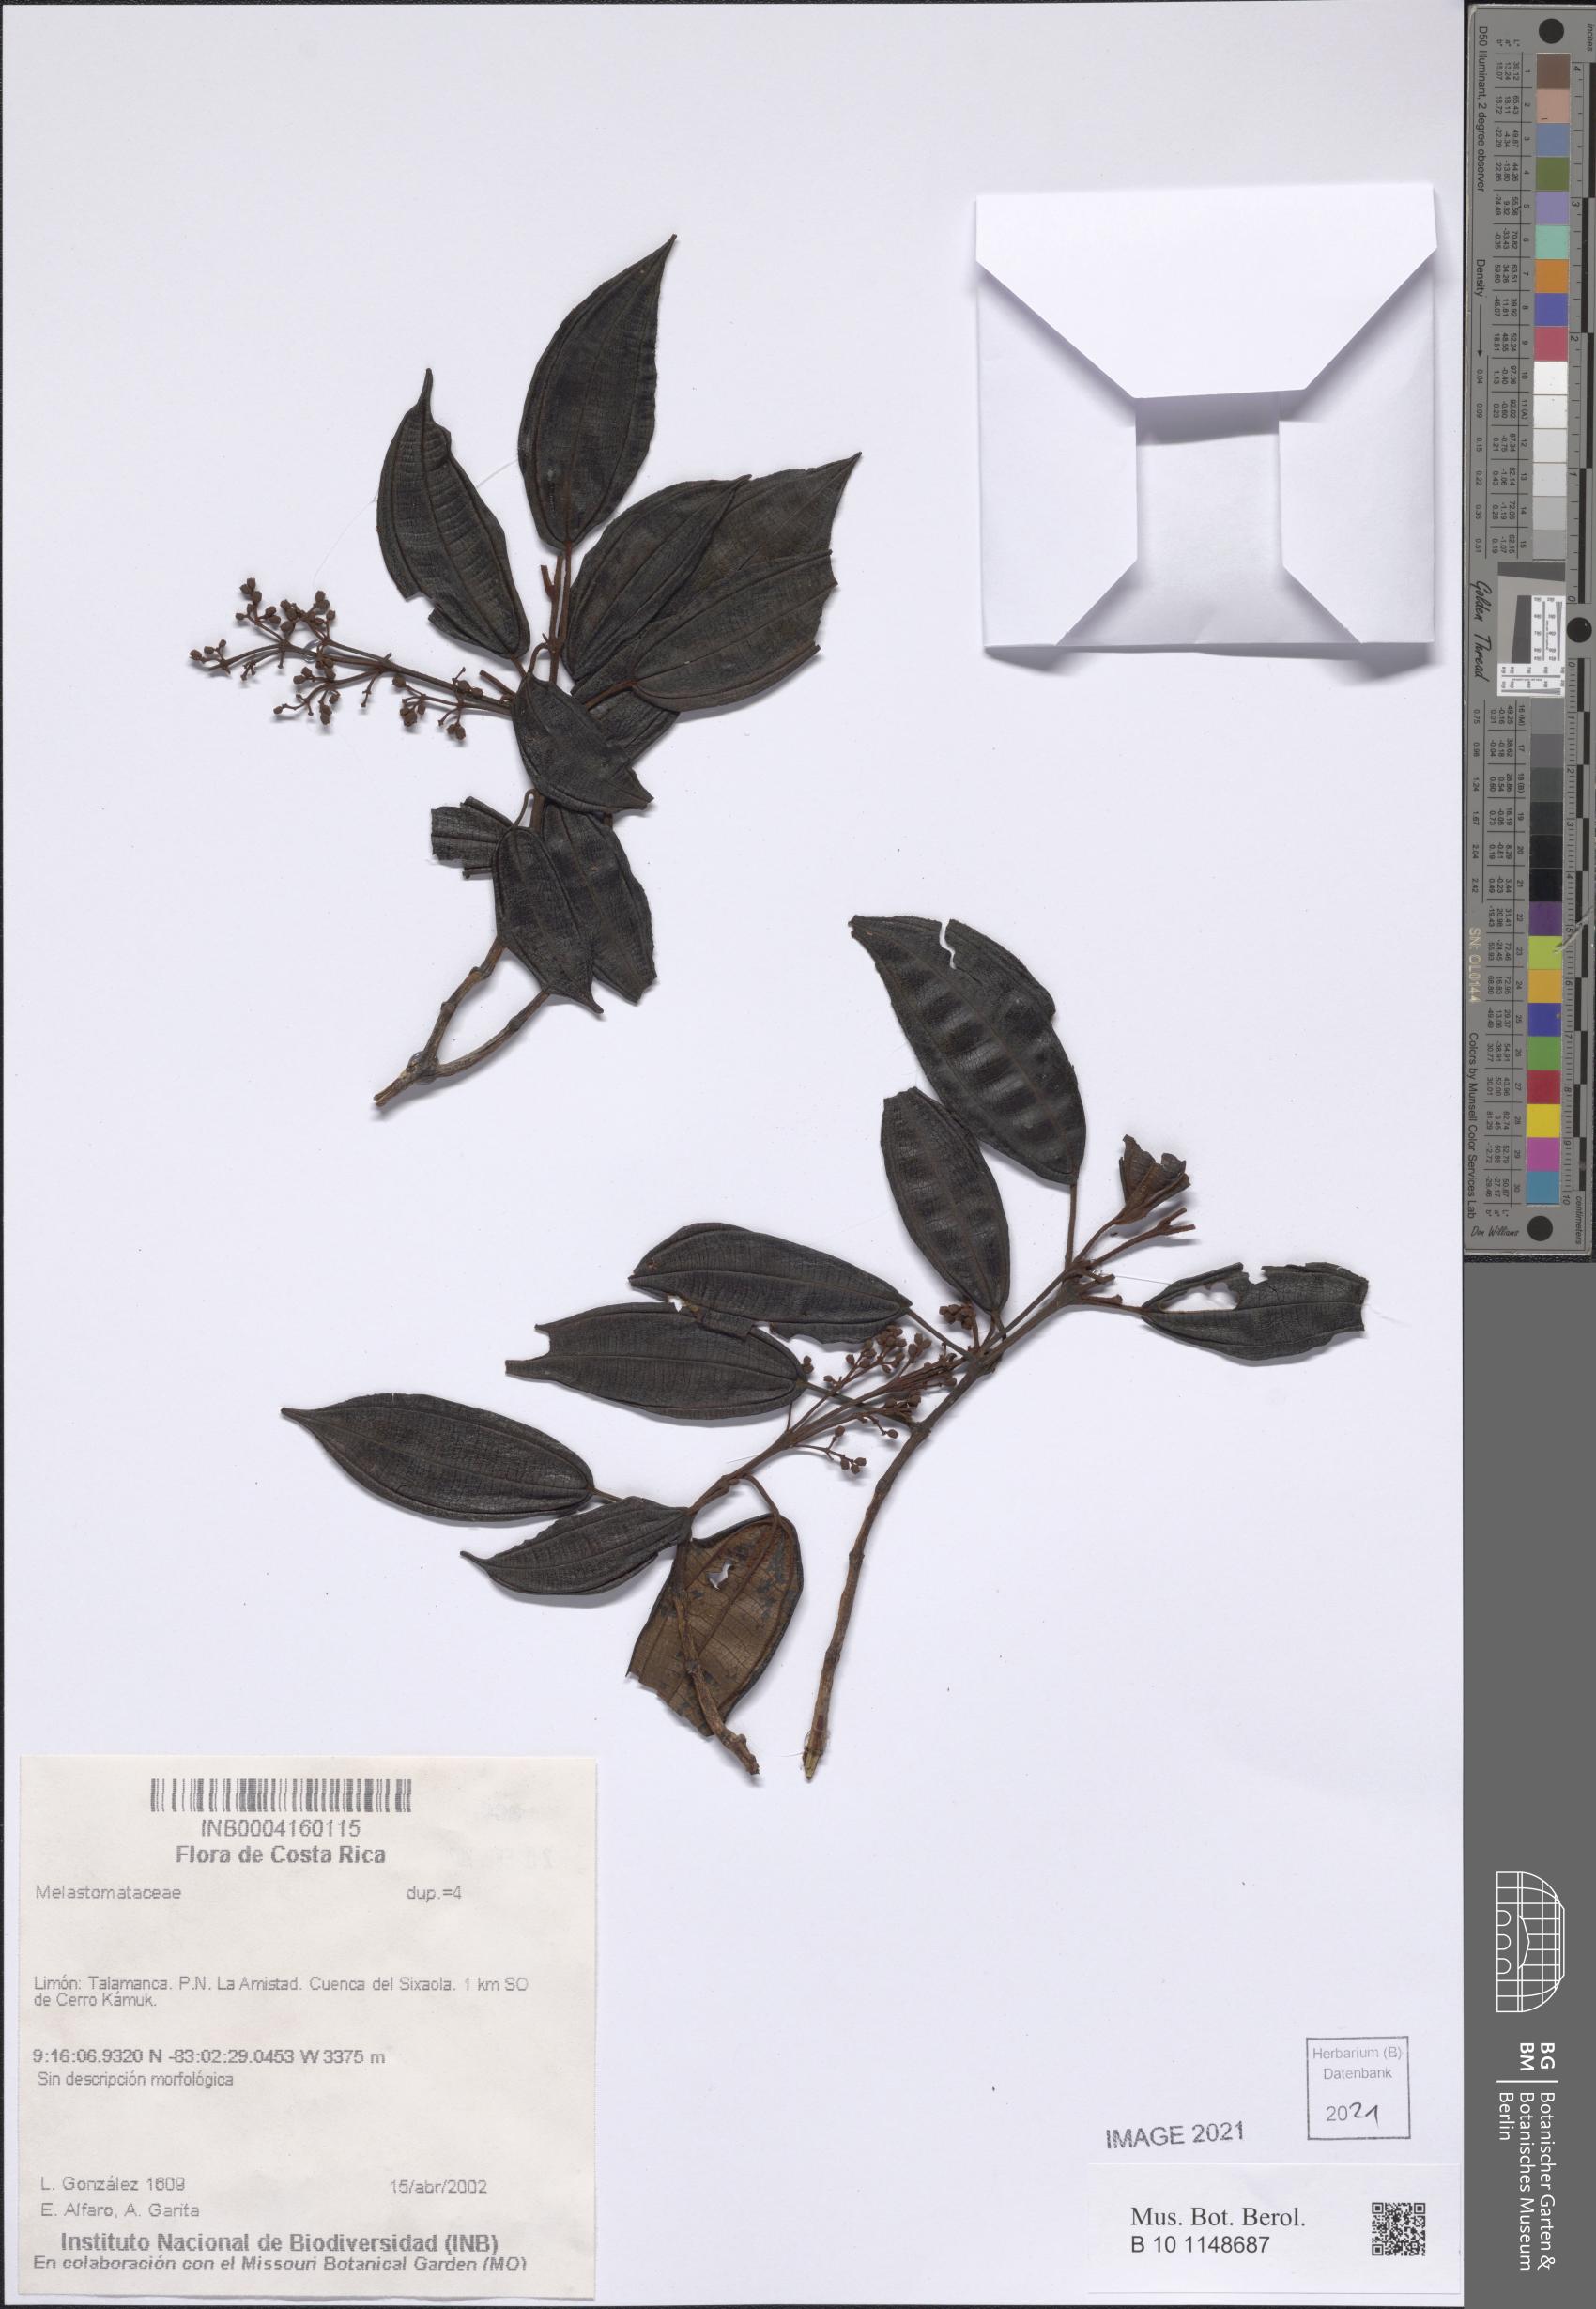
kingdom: Plantae
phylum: Tracheophyta
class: Magnoliopsida
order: Myrtales
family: Melastomataceae
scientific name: Melastomataceae
